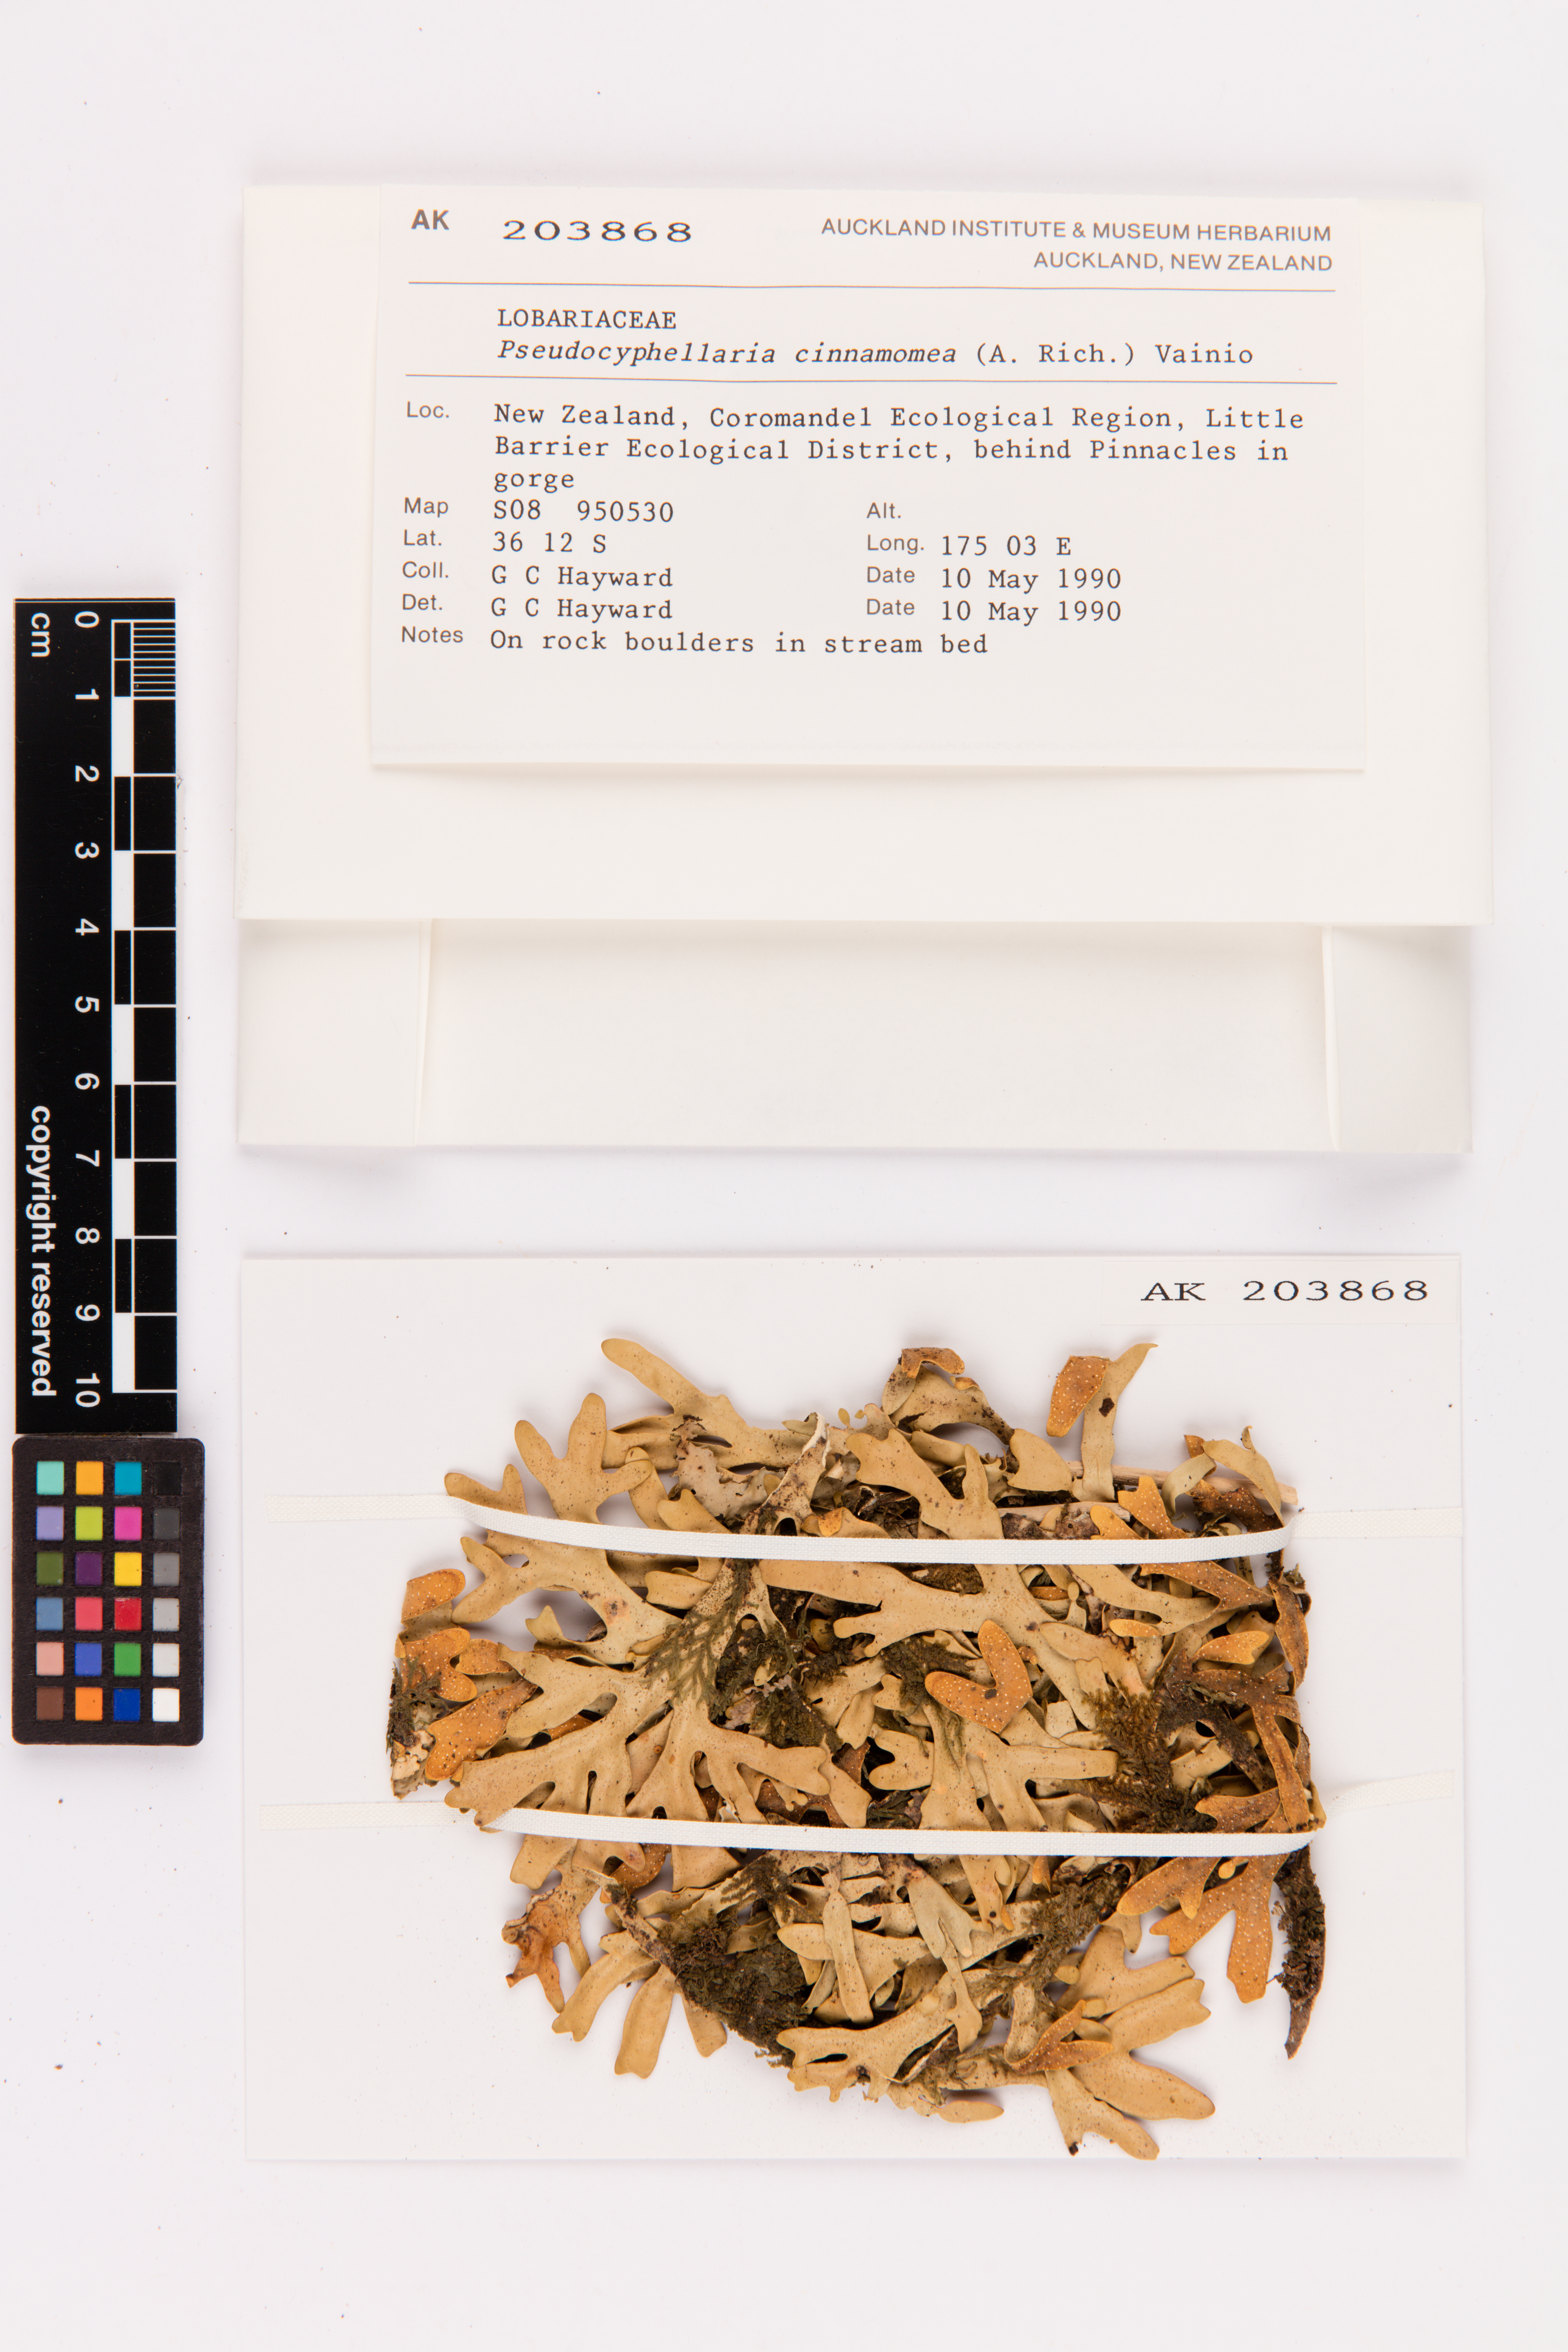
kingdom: Fungi
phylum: Ascomycota
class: Lecanoromycetes
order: Peltigerales
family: Lobariaceae
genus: Pseudocyphellaria
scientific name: Pseudocyphellaria cinnamomea
